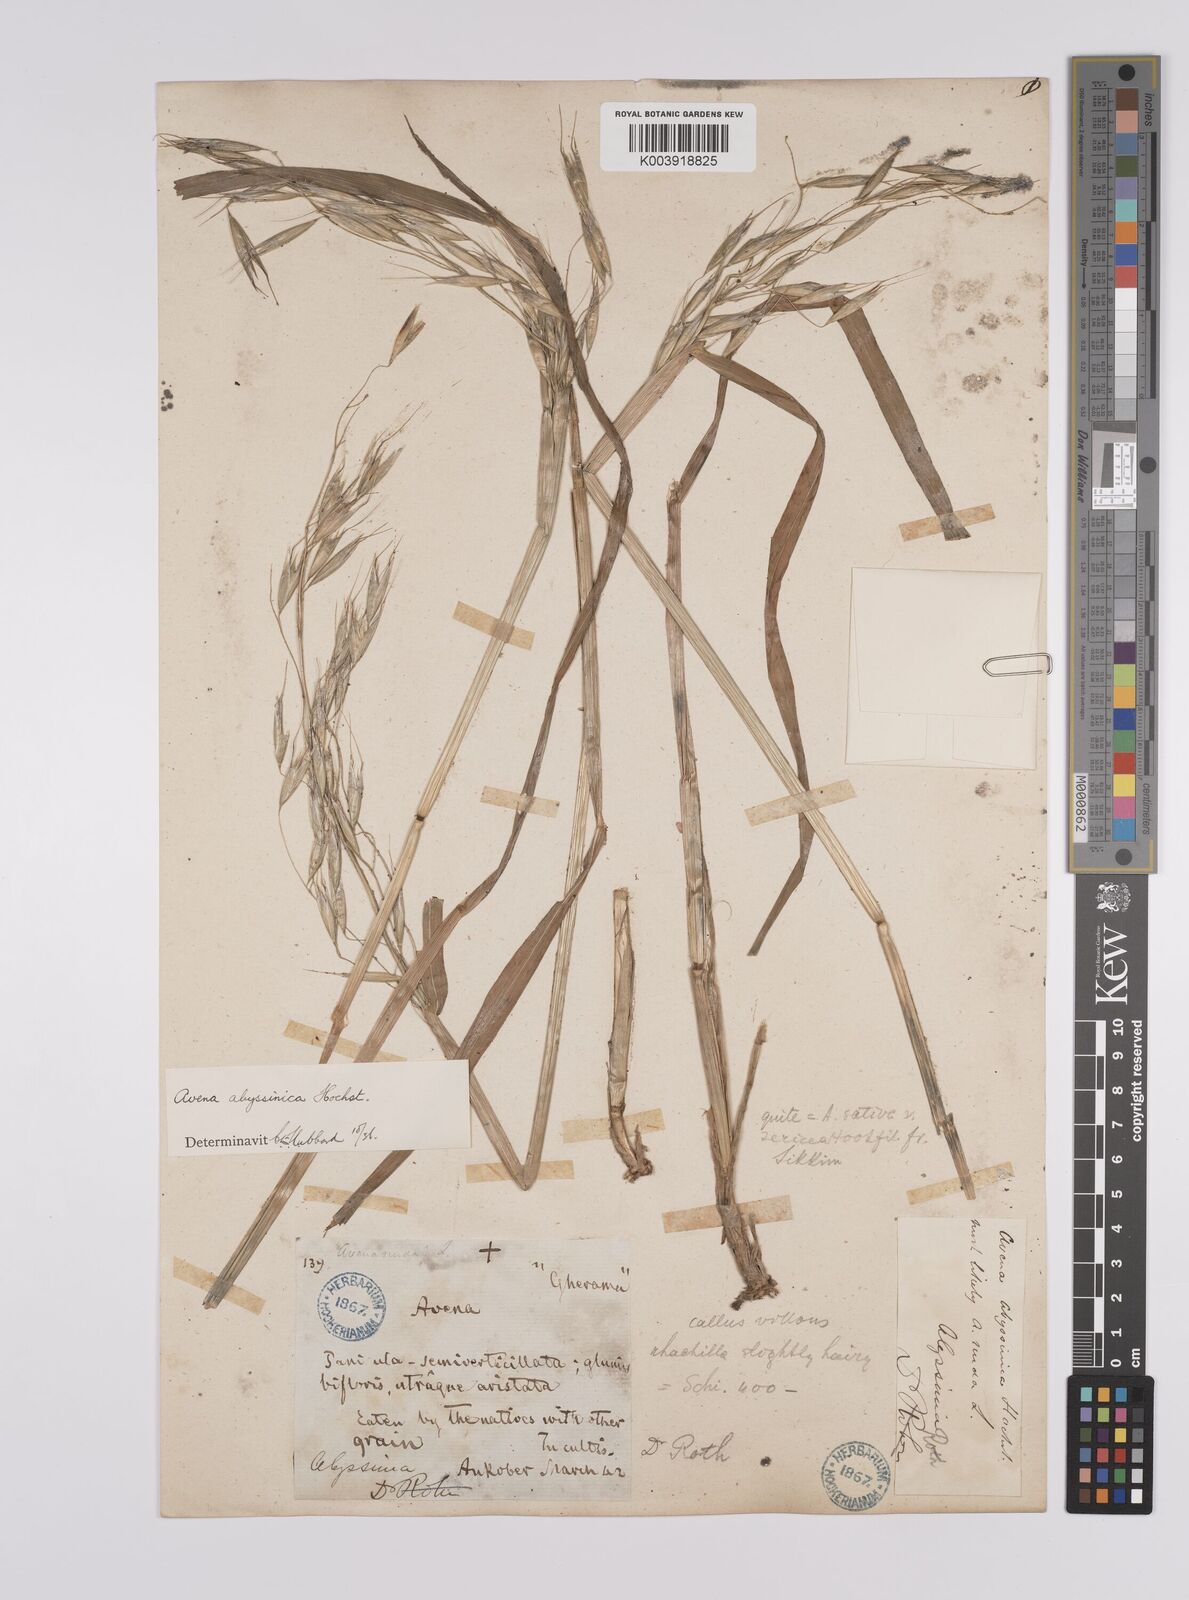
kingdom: Plantae
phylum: Tracheophyta
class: Liliopsida
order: Poales
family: Poaceae
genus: Avena
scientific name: Avena abyssinica
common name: Ethiopian oat
